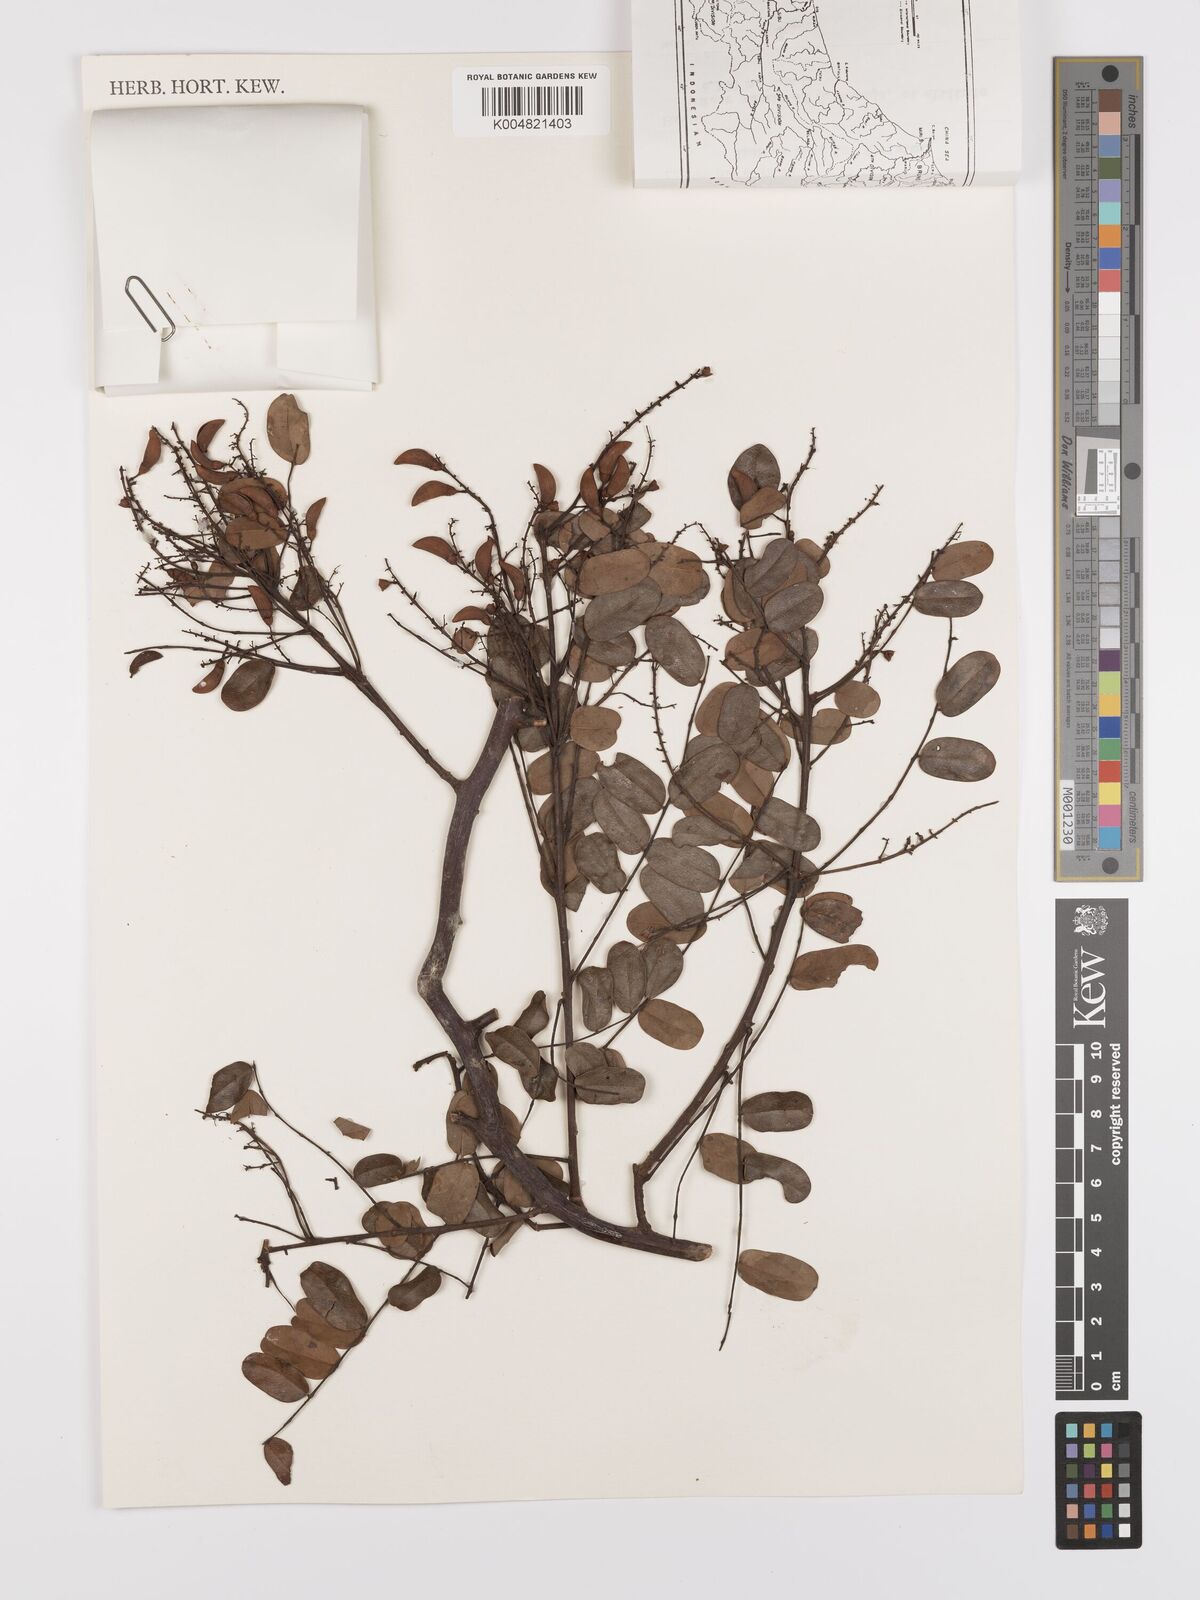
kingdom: Plantae
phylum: Tracheophyta
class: Magnoliopsida
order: Oxalidales
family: Connaraceae
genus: Rourea
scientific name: Rourea mimosoides
